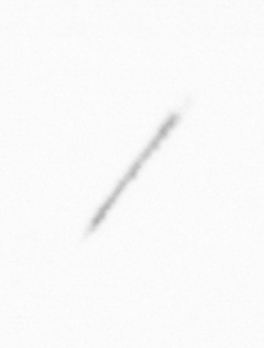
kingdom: Chromista
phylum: Ochrophyta
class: Bacillariophyceae
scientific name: Bacillariophyceae
